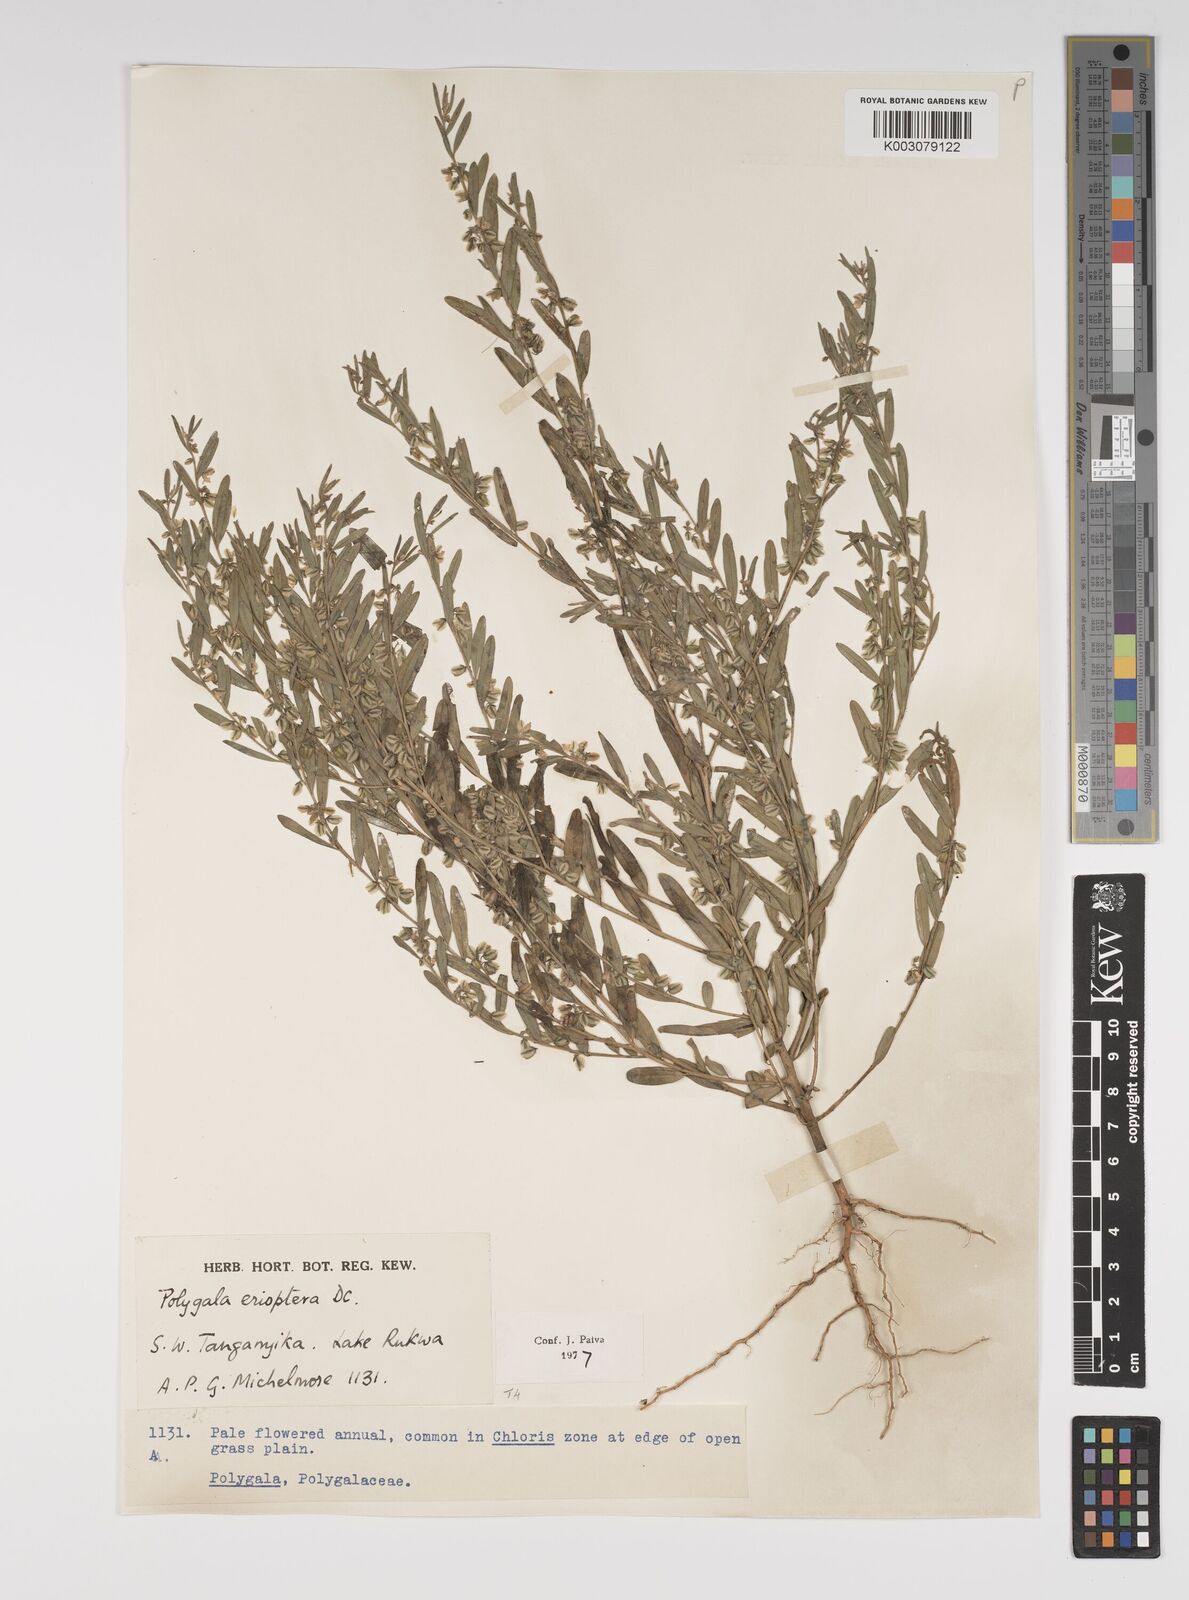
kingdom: Plantae
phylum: Tracheophyta
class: Magnoliopsida
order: Fabales
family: Polygalaceae
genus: Polygala
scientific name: Polygala erioptera
